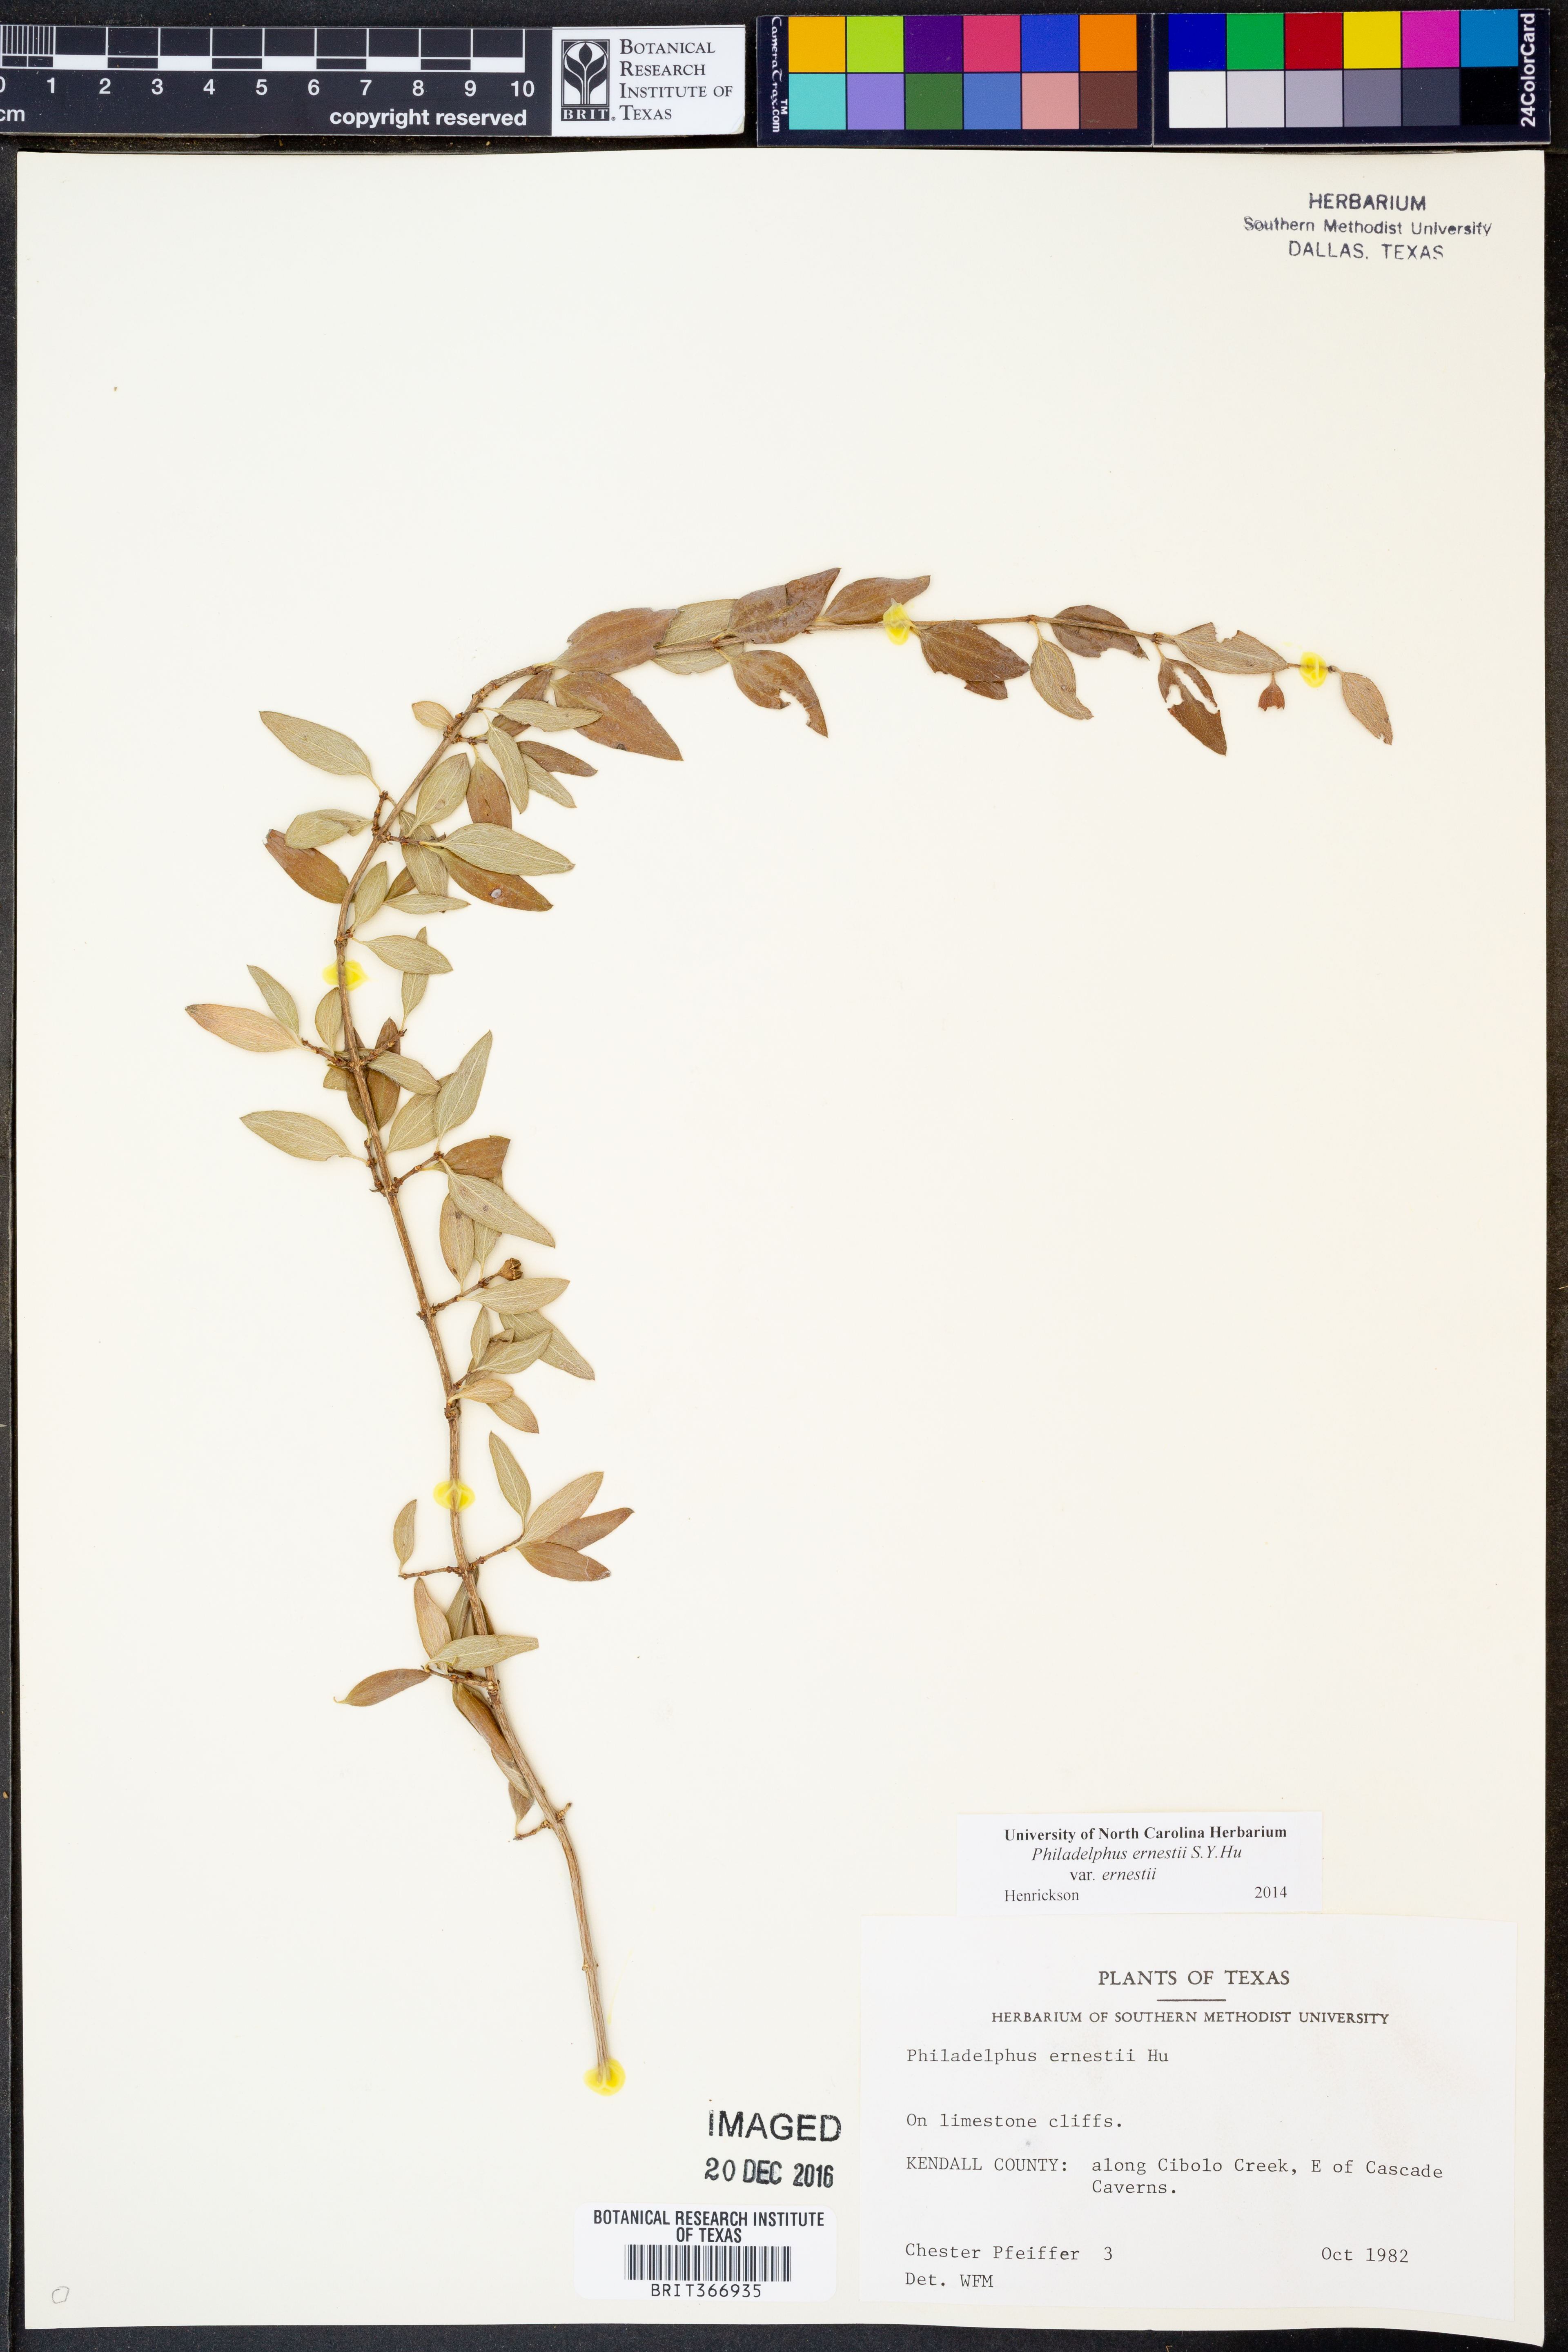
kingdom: Plantae
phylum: Tracheophyta
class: Magnoliopsida
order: Cornales
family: Hydrangeaceae
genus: Philadelphus
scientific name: Philadelphus texensis
